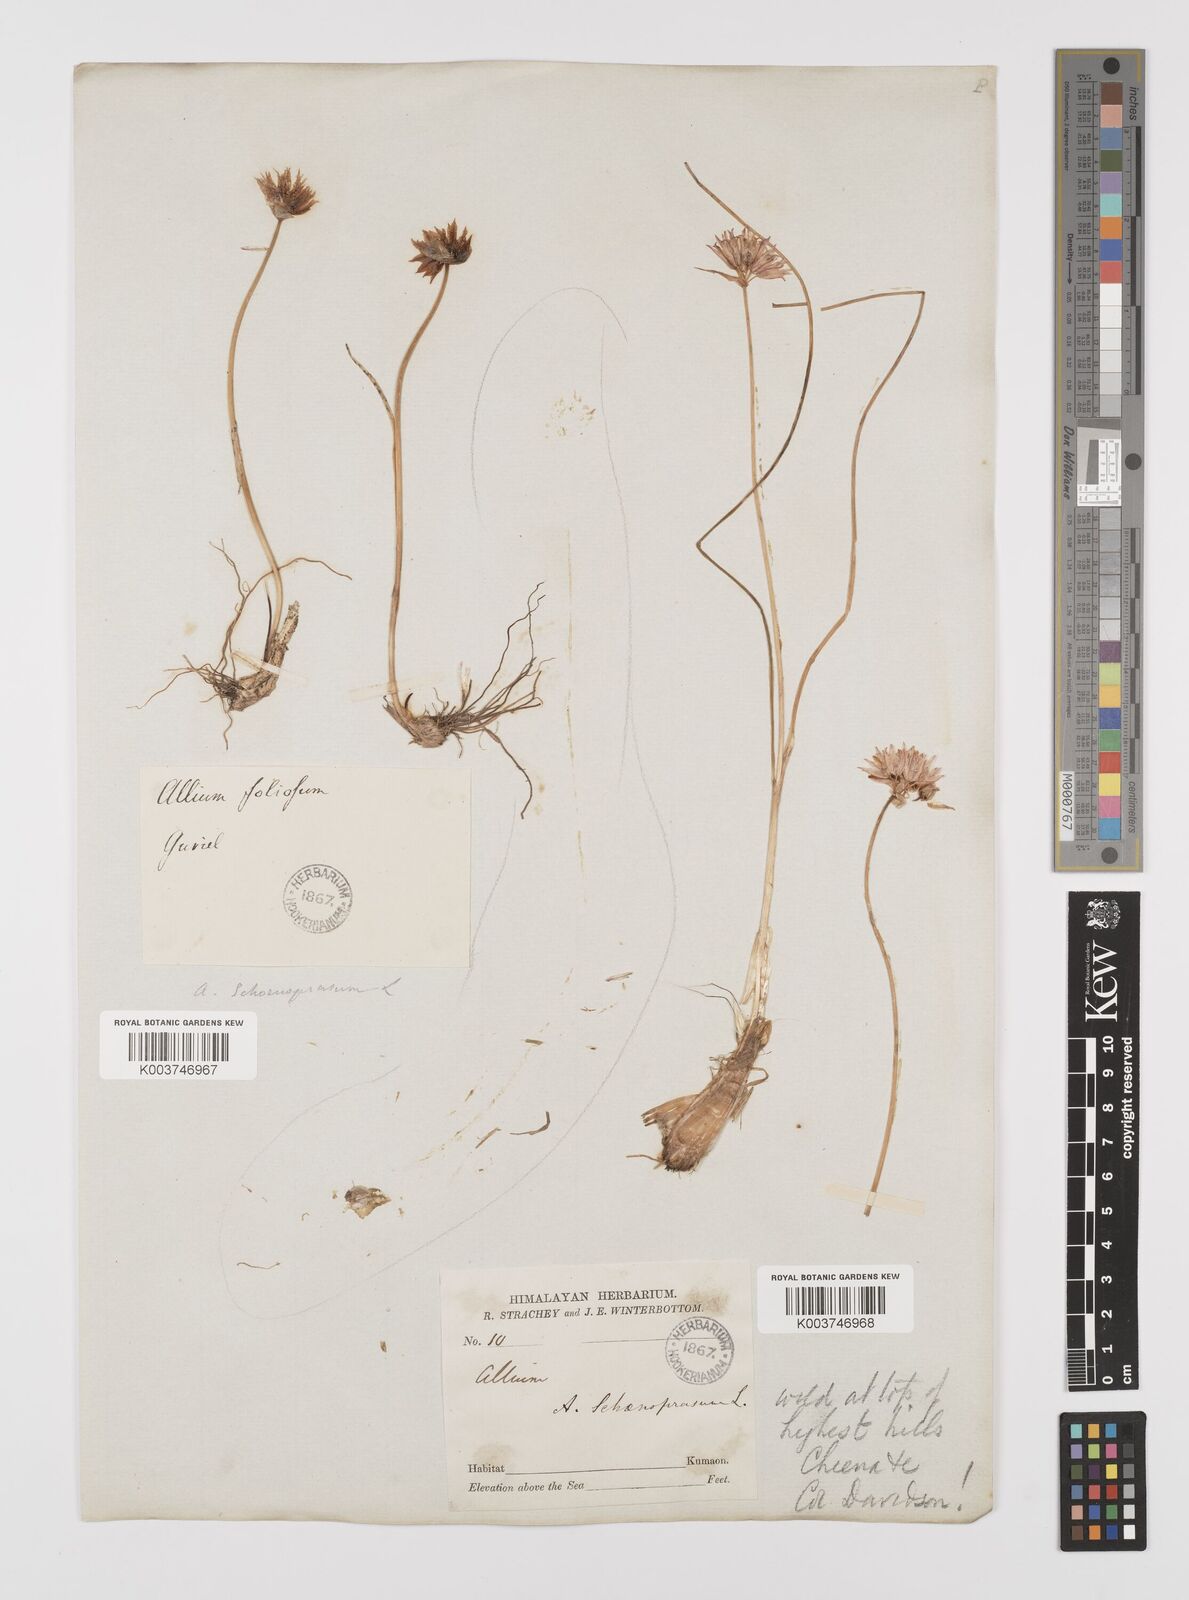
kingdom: Plantae
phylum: Tracheophyta
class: Liliopsida
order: Asparagales
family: Amaryllidaceae
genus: Allium
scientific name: Allium schoenoprasum
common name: Chives
